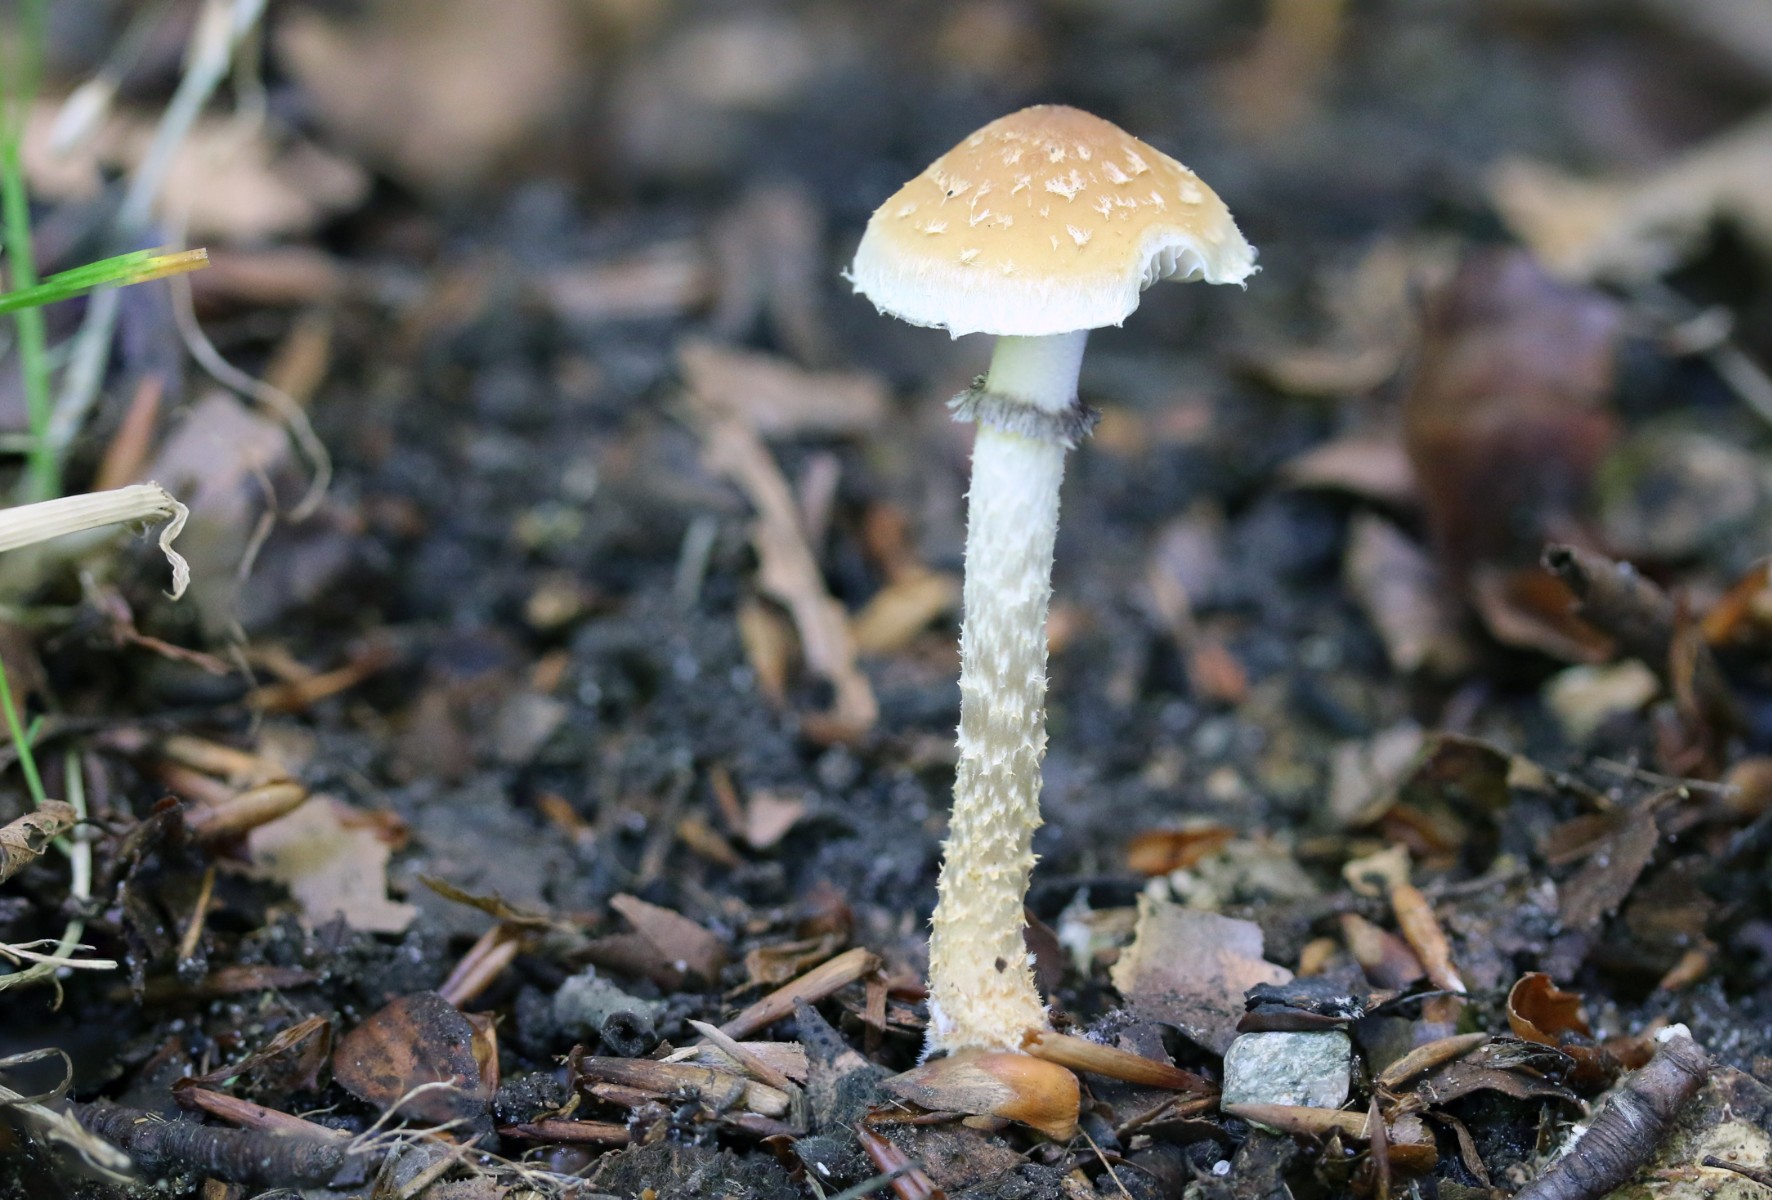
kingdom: Fungi
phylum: Basidiomycota
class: Agaricomycetes
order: Agaricales
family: Strophariaceae
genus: Leratiomyces
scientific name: Leratiomyces squamosus
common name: skællet bredblad
